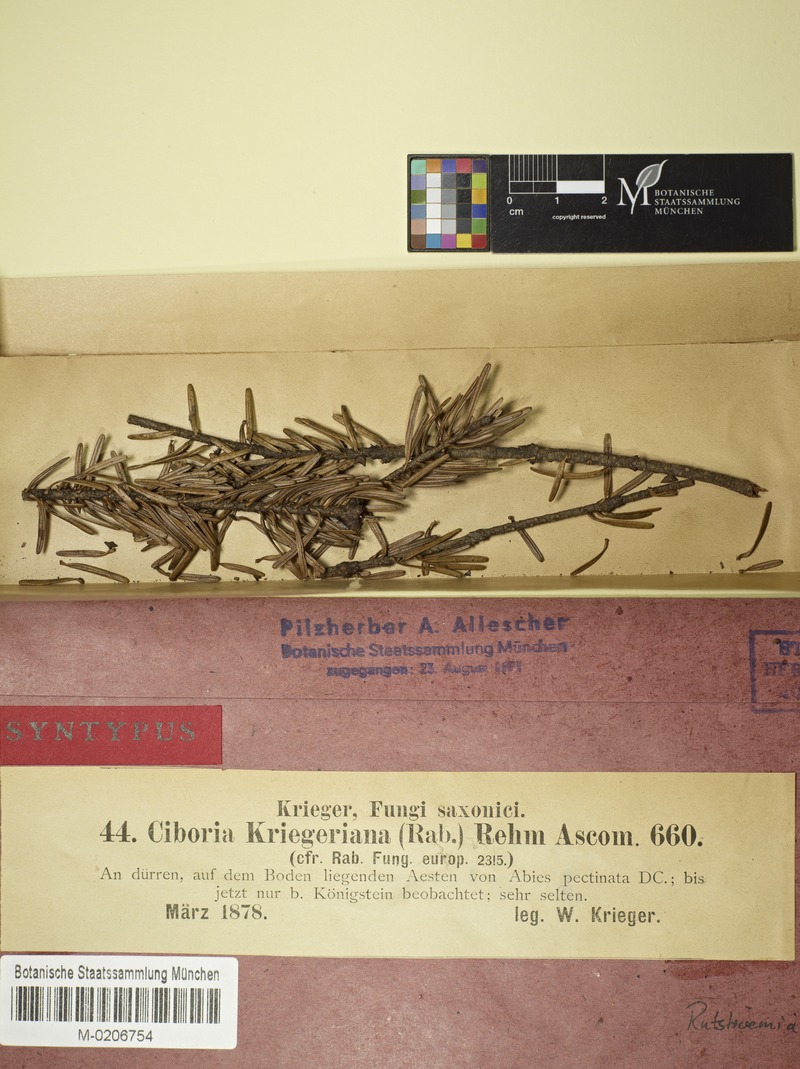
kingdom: Fungi
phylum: Ascomycota
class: Leotiomycetes
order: Helotiales
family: Rutstroemiaceae
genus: Rutstroemia
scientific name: Rutstroemia elatina
